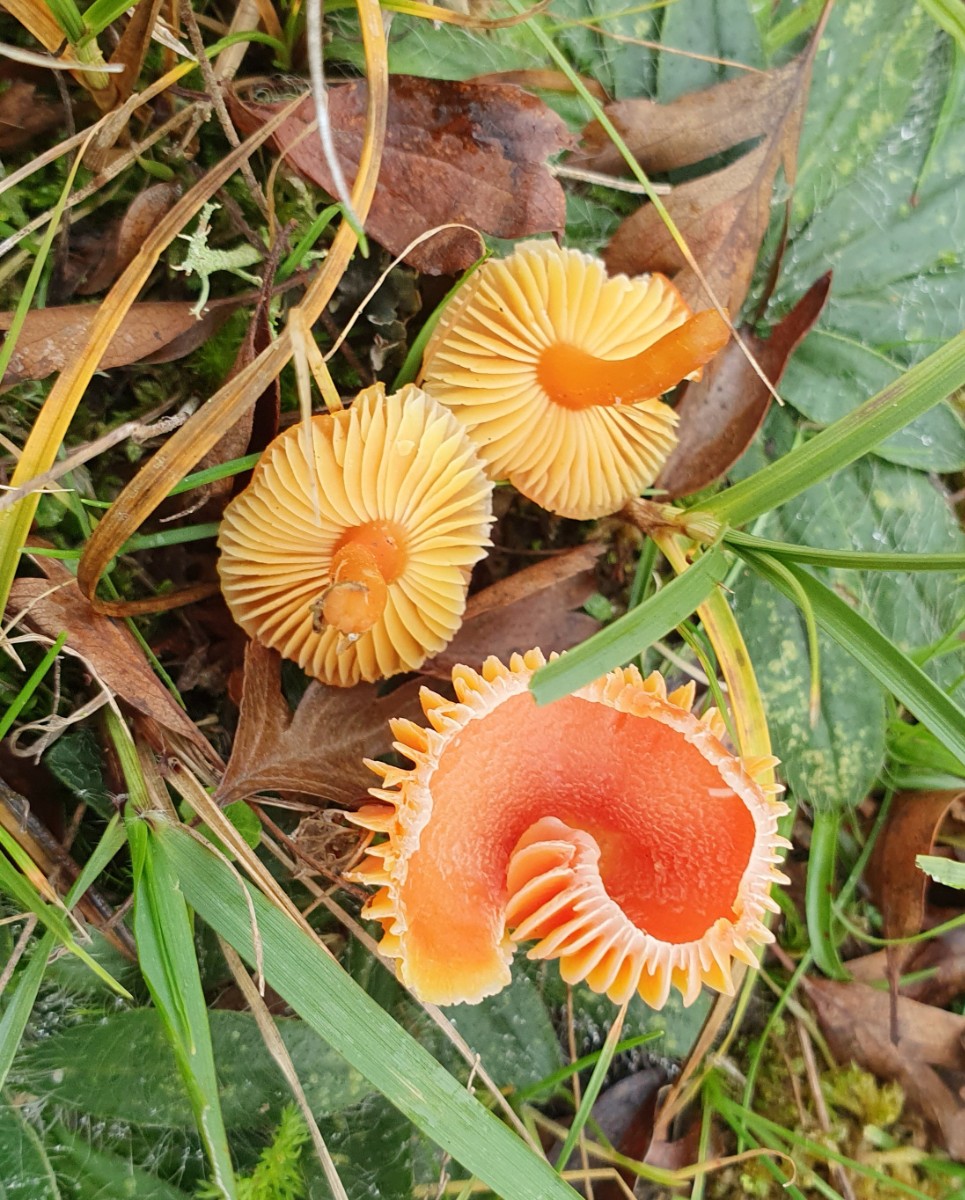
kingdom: Fungi
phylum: Basidiomycota
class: Agaricomycetes
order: Agaricales
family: Hygrophoraceae
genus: Hygrocybe
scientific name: Hygrocybe miniata
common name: mønje-vokshat
